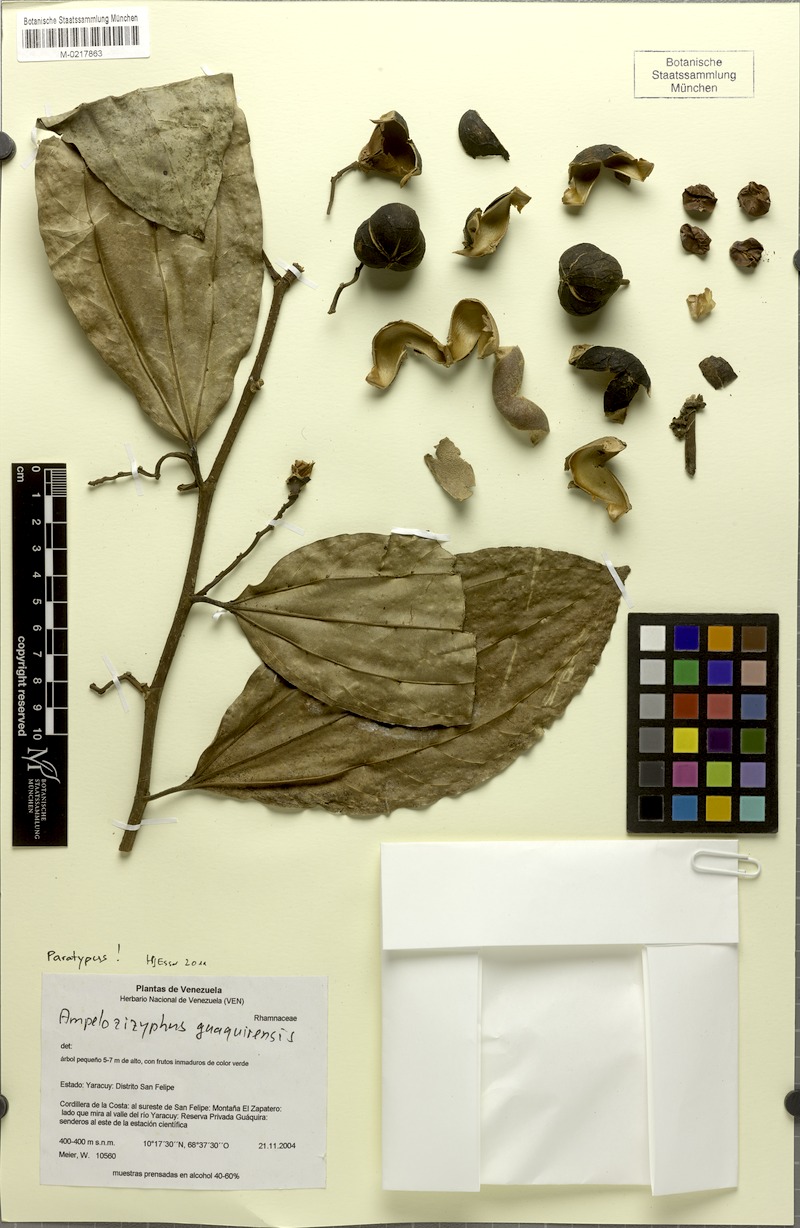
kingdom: Plantae
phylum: Tracheophyta
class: Magnoliopsida
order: Rosales
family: Rhamnaceae
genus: Ampelozizyphus
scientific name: Ampelozizyphus guaquirensis
